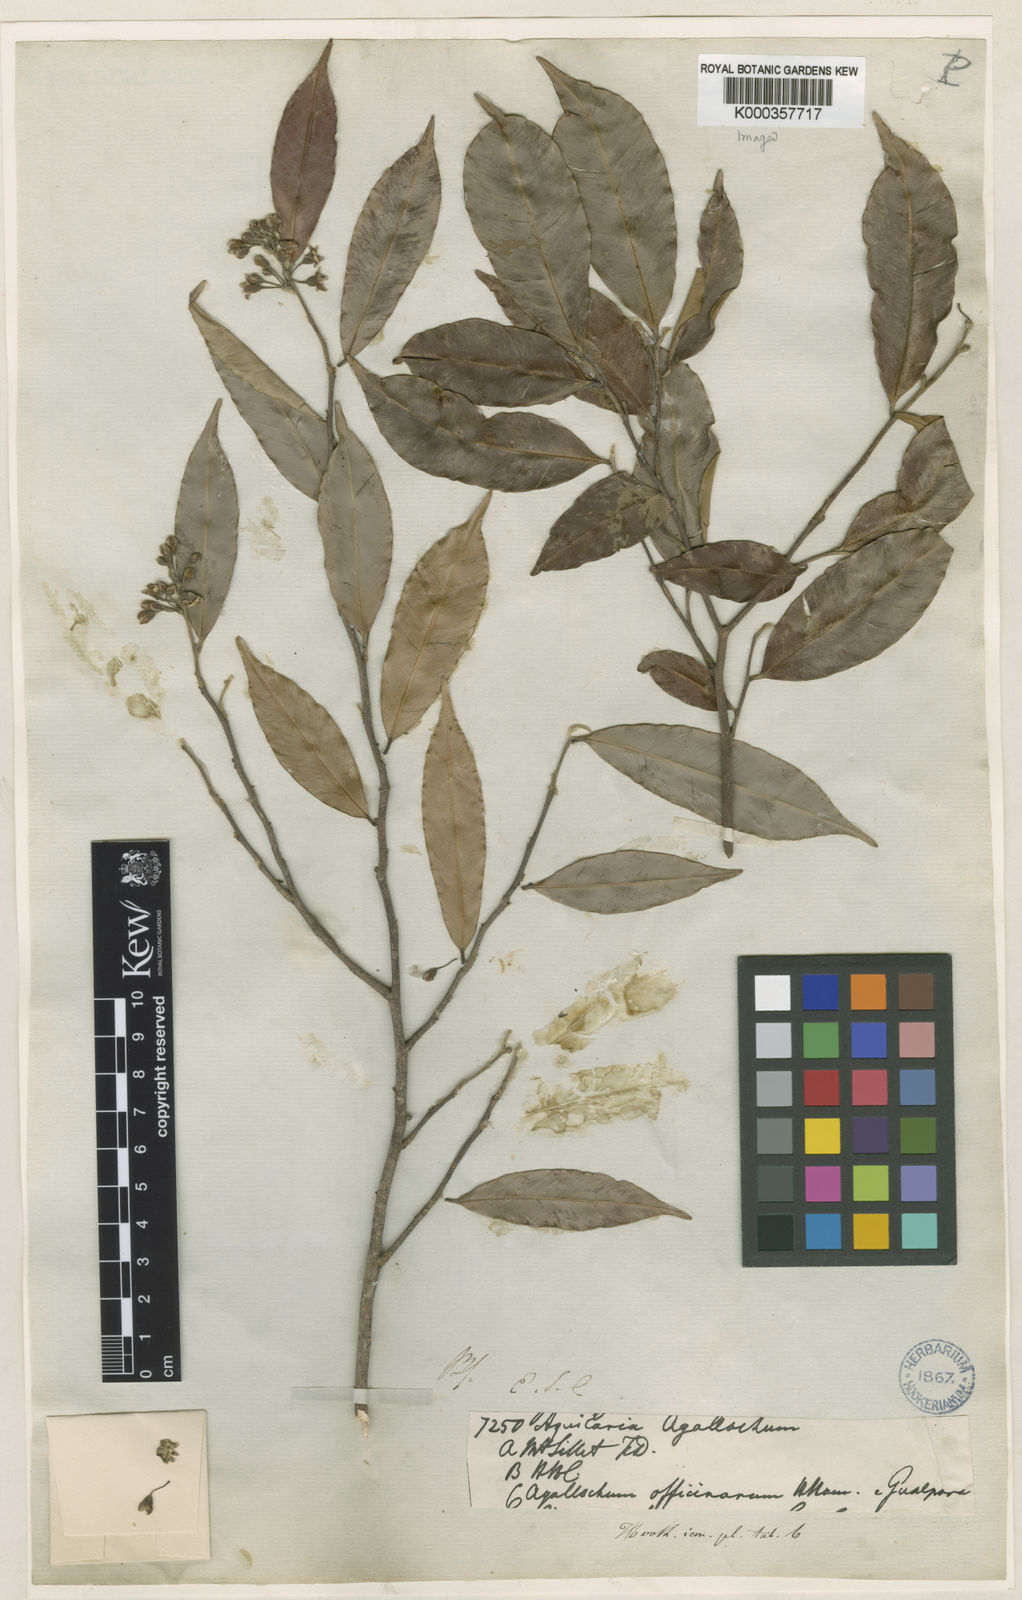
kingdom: Plantae
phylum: Tracheophyta
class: Magnoliopsida
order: Malvales
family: Thymelaeaceae
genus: Aquilaria
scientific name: Aquilaria agallocha
